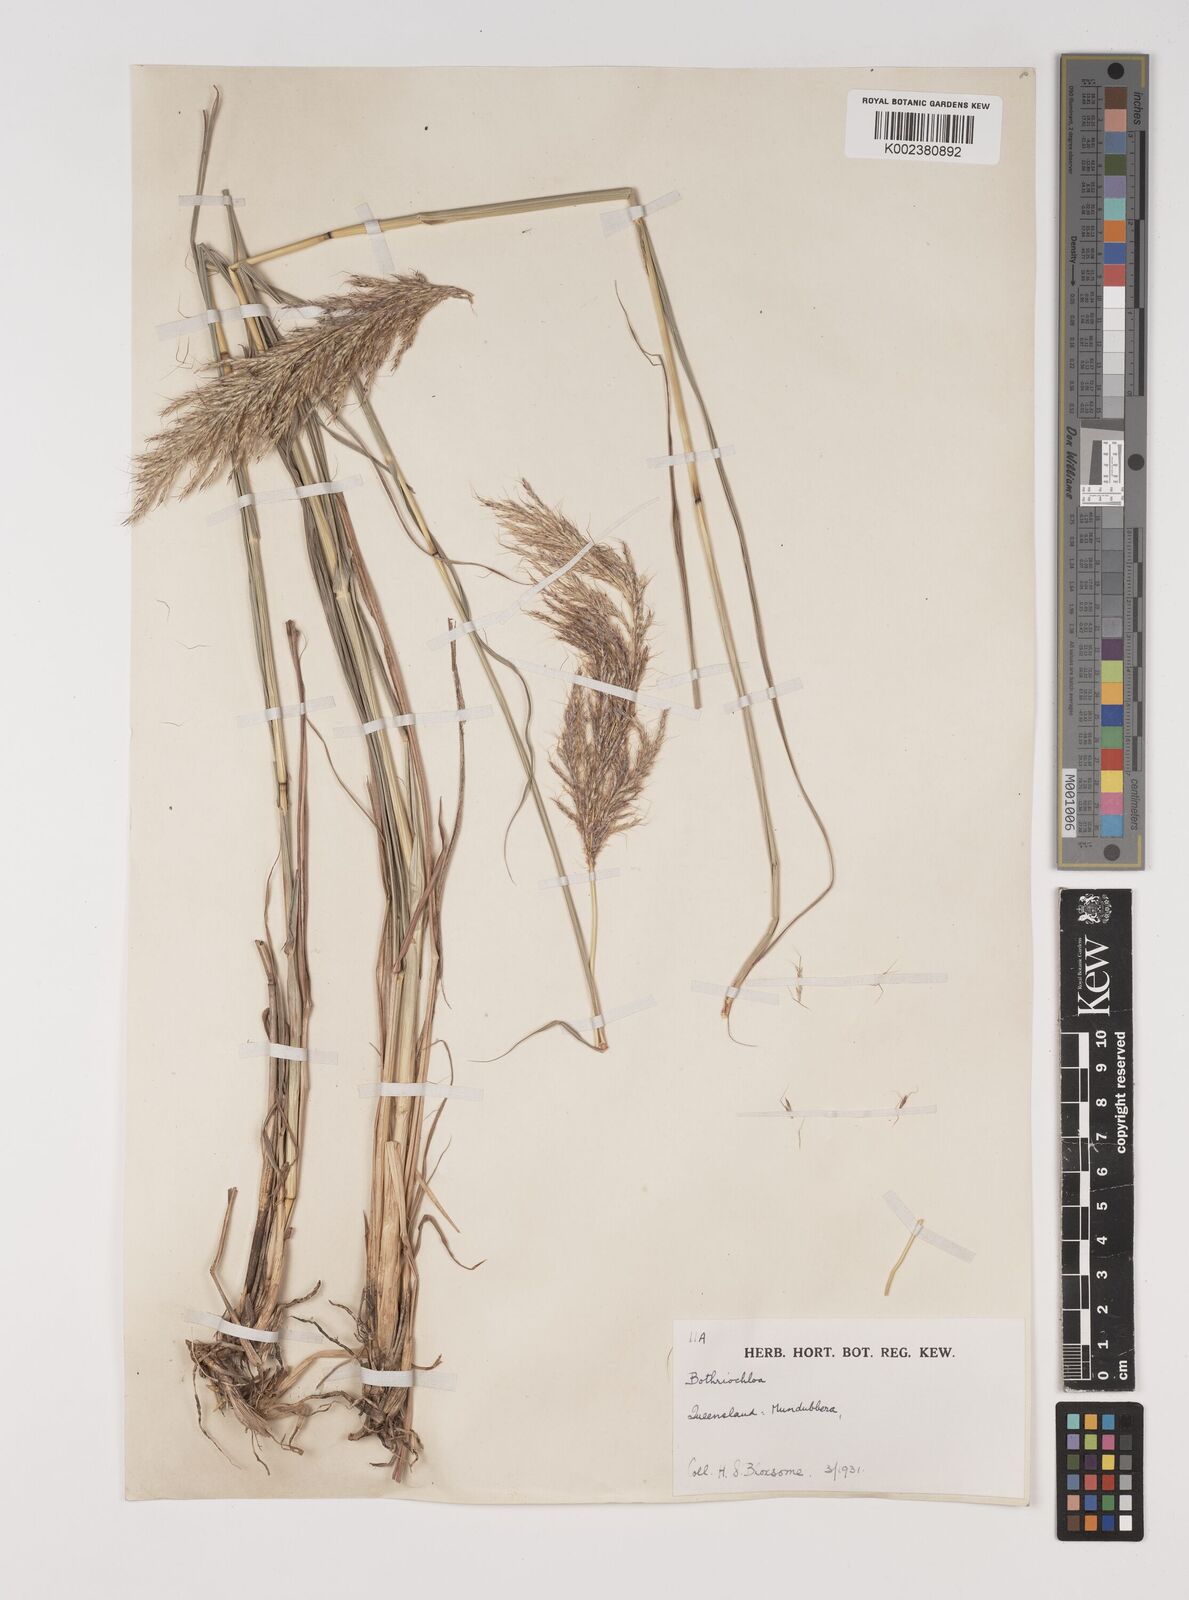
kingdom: Plantae
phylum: Tracheophyta
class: Liliopsida
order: Poales
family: Poaceae
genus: Bothriochloa
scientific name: Bothriochloa bladhii
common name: Caucasian bluestem
